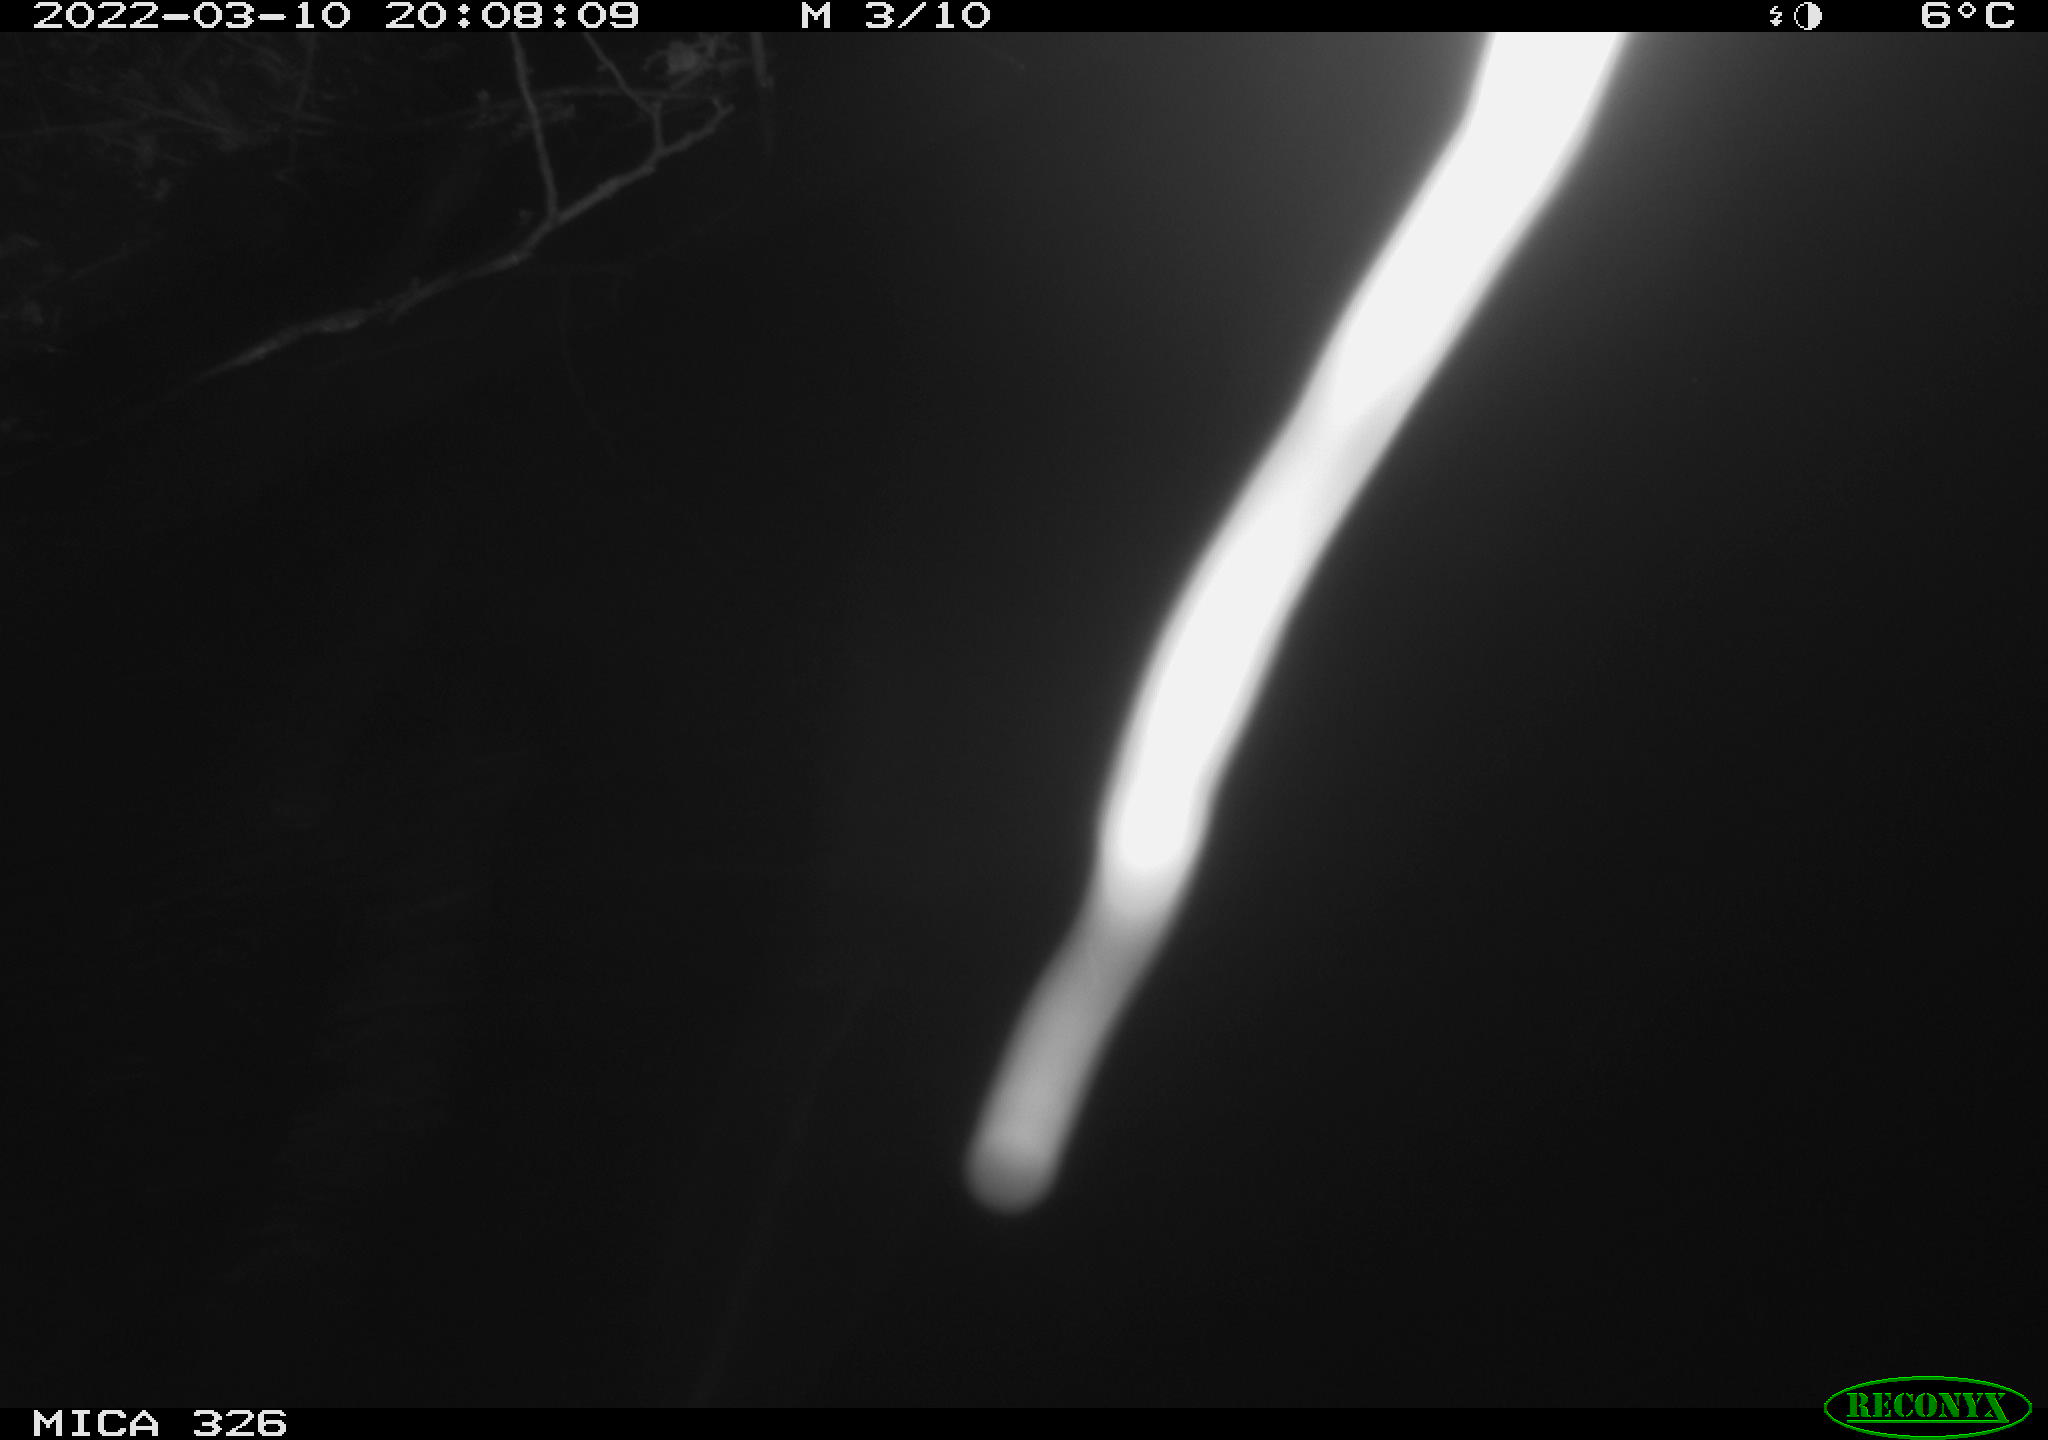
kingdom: Animalia
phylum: Chordata
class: Mammalia
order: Rodentia
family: Muridae
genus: Rattus
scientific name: Rattus norvegicus
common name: Brown rat
